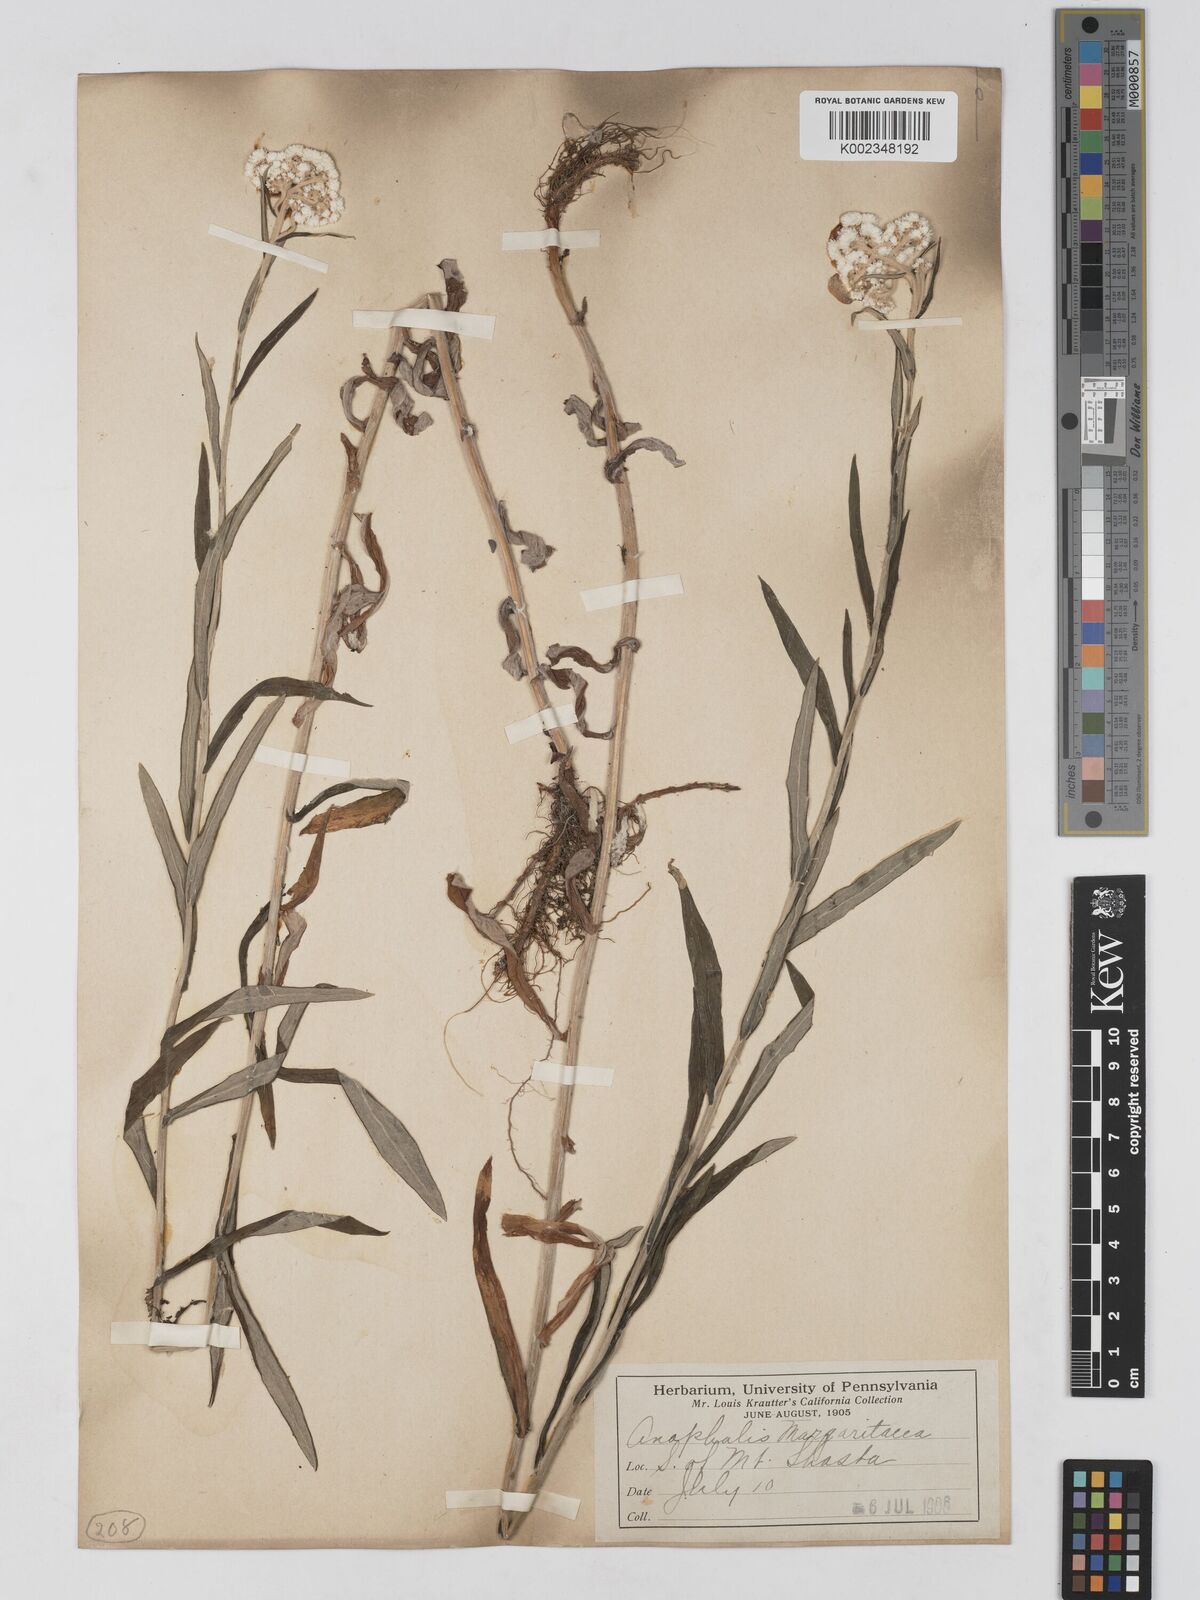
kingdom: Plantae
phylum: Tracheophyta
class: Magnoliopsida
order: Asterales
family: Asteraceae
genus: Anaphalis
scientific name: Anaphalis margaritacea
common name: Pearly everlasting
